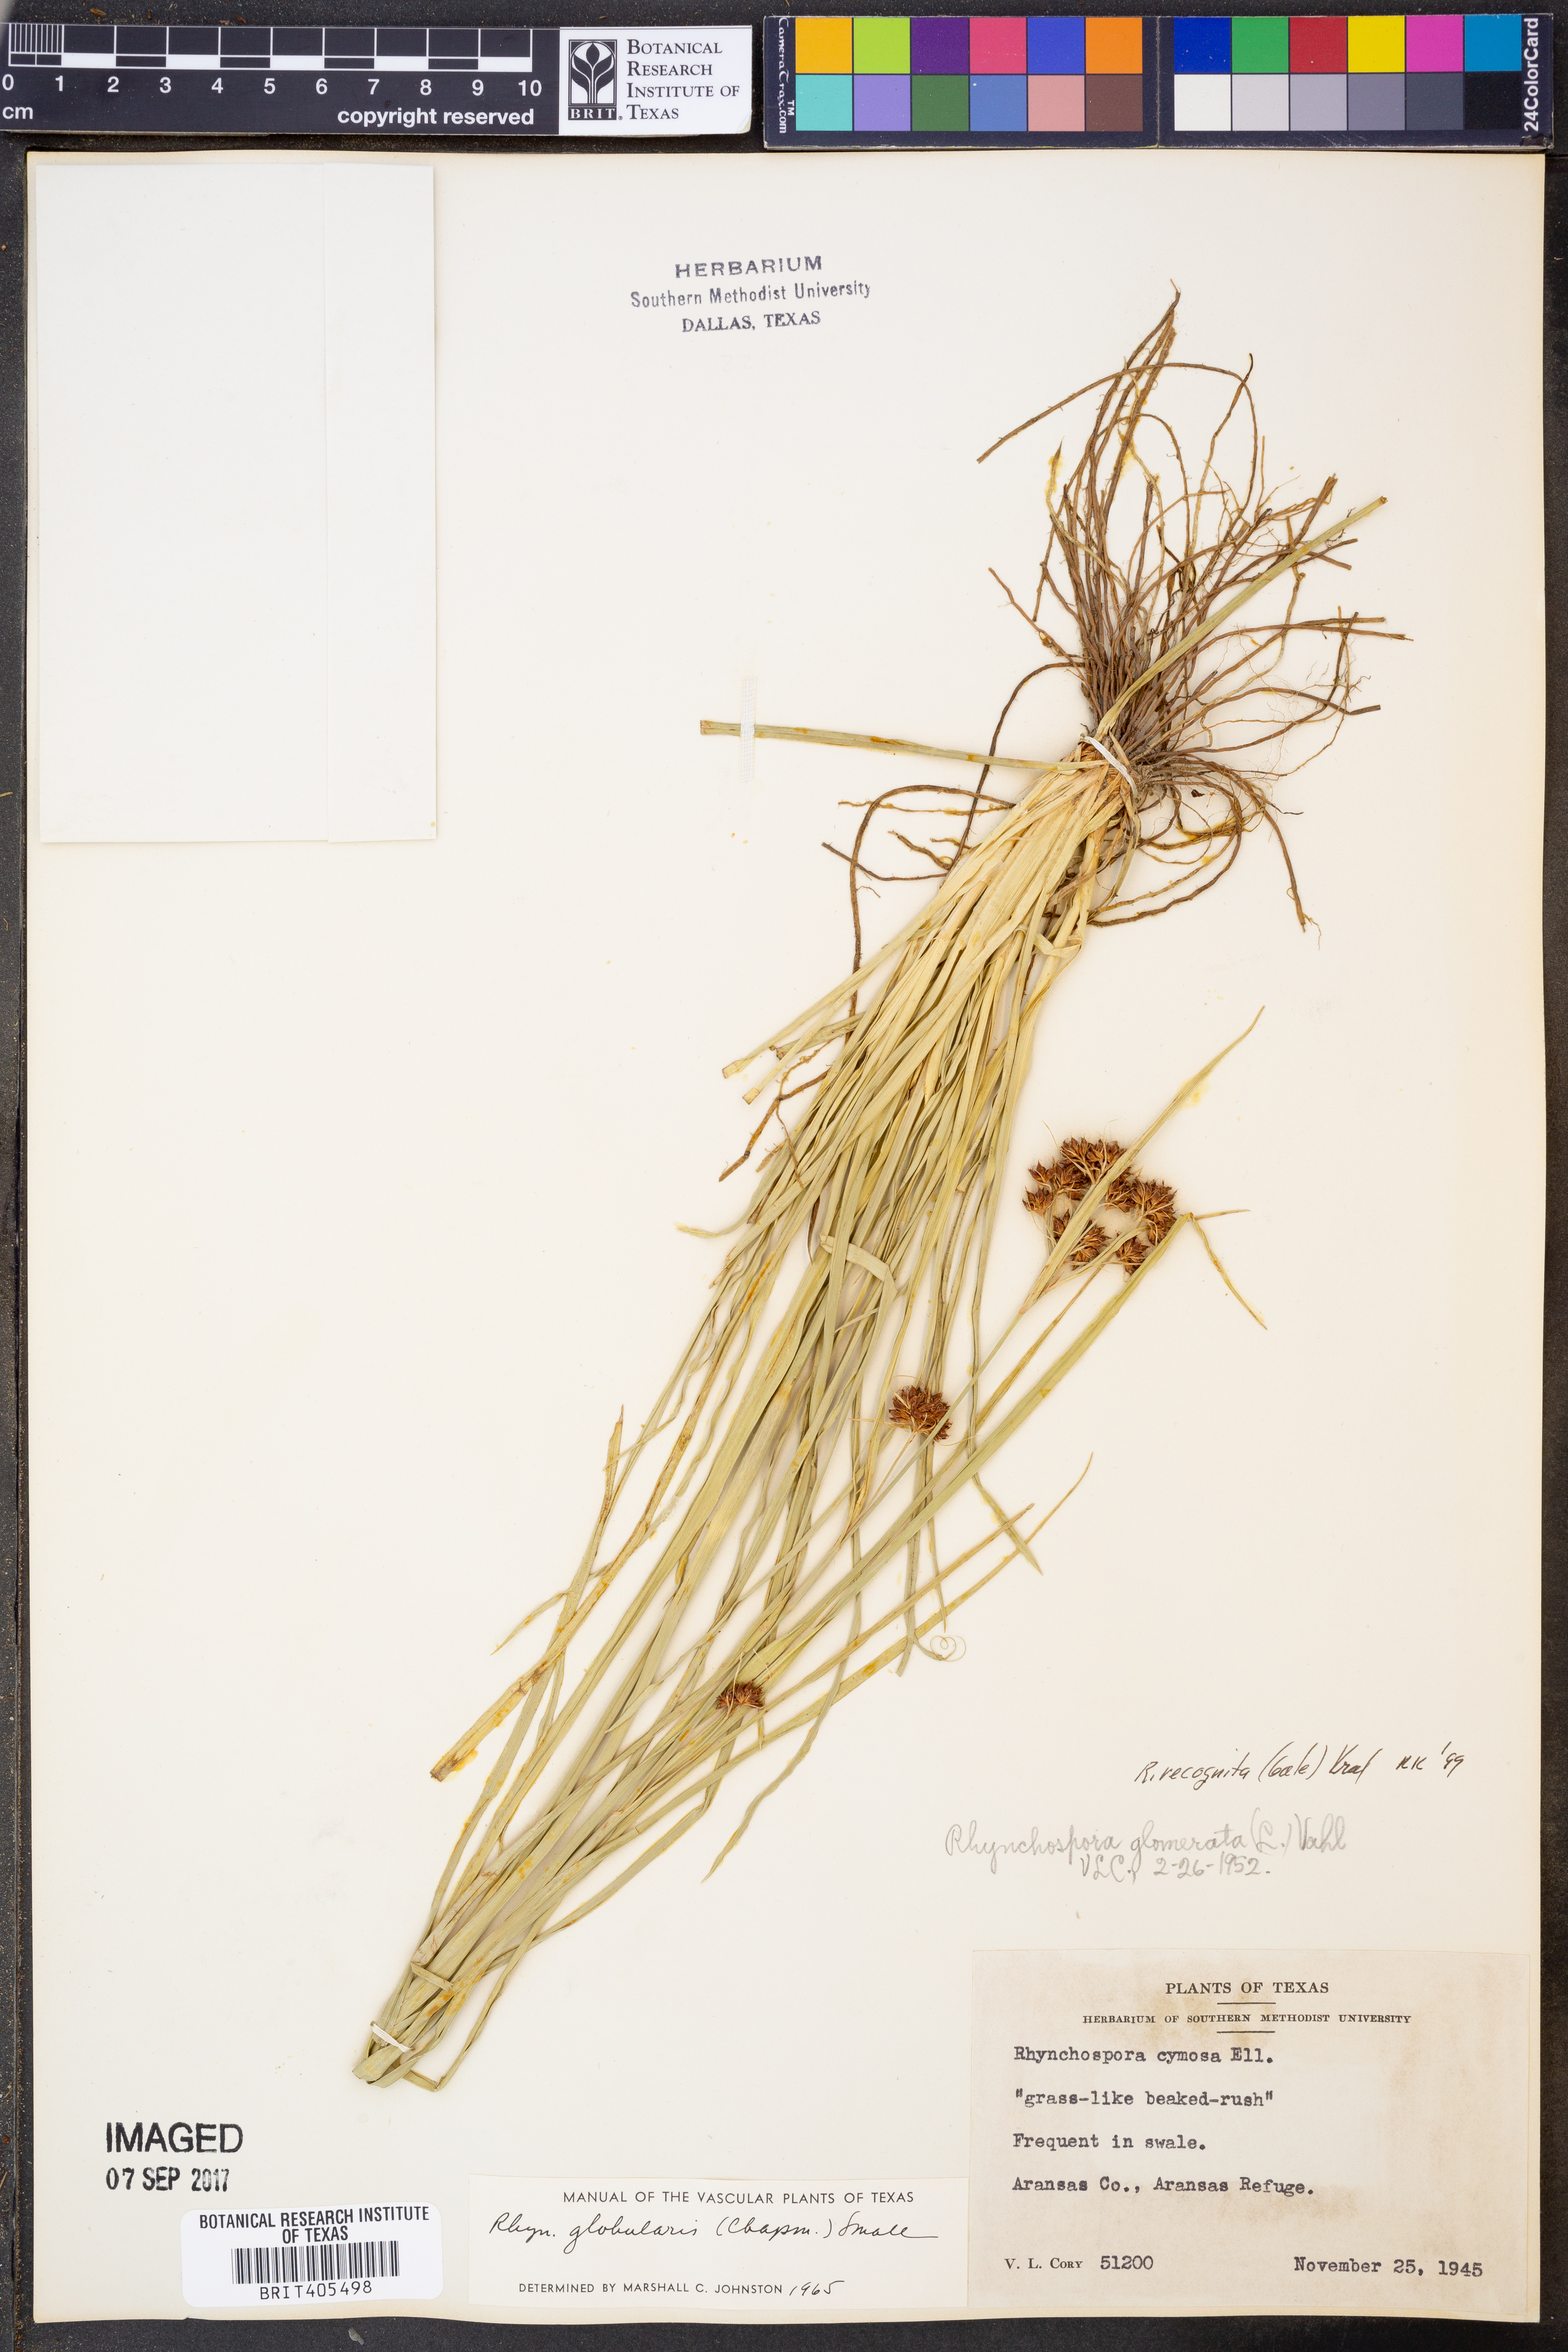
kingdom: Plantae
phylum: Tracheophyta
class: Liliopsida
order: Poales
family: Cyperaceae
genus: Rhynchospora
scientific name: Rhynchospora recognita
